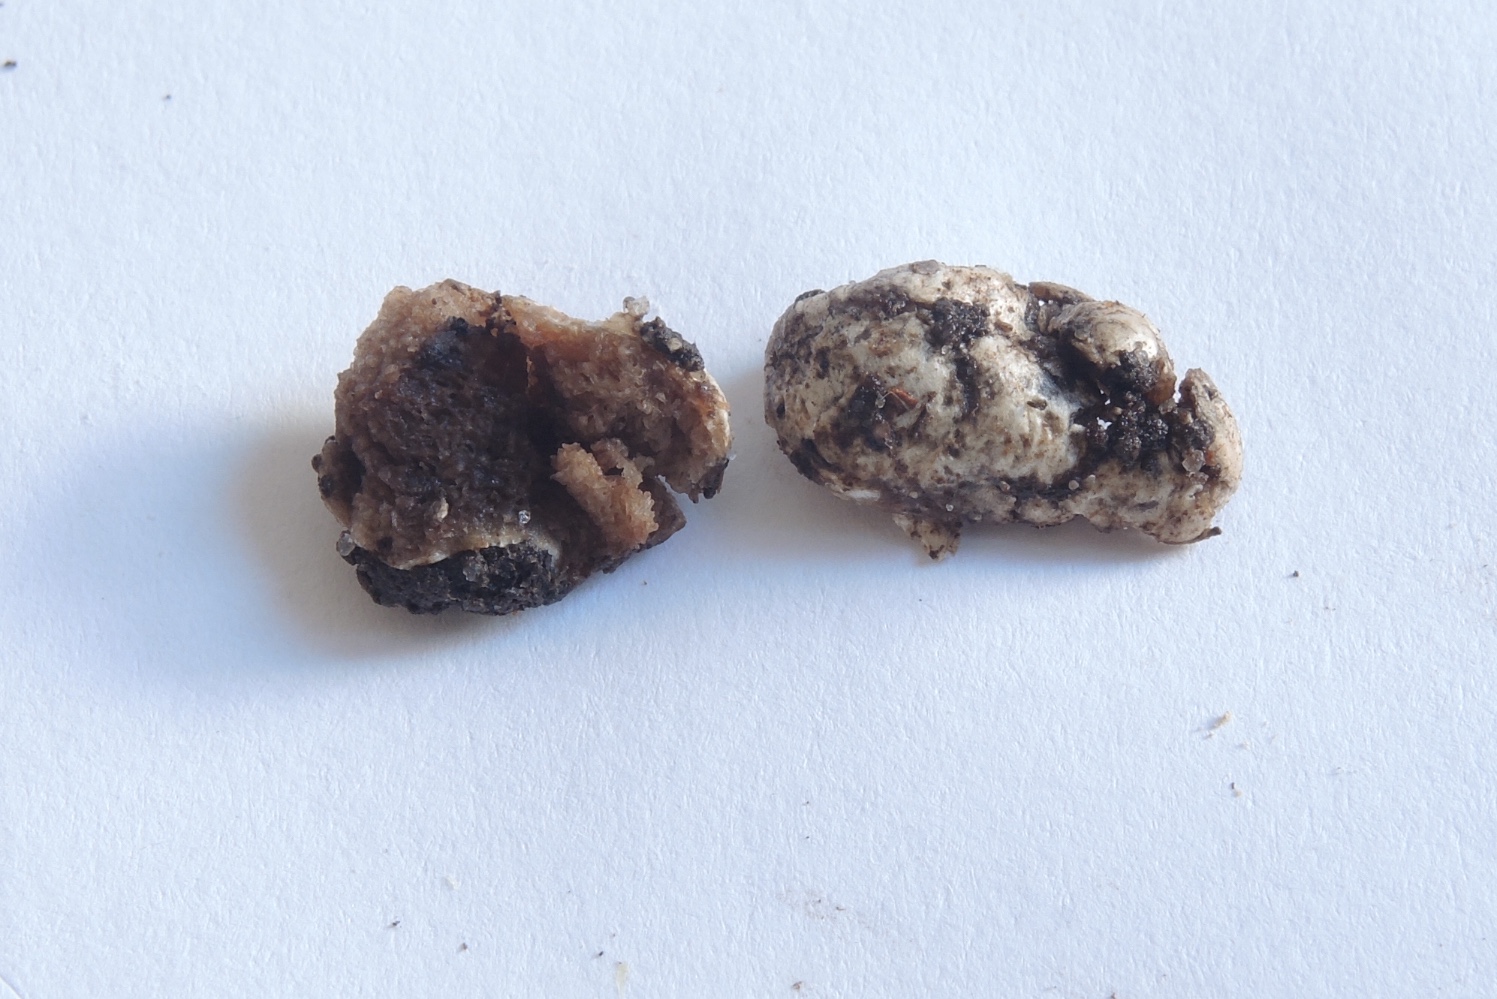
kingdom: Fungi
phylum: Basidiomycota
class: Agaricomycetes
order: Agaricales
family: Hymenogastraceae
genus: Hymenogaster
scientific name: Hymenogaster
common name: knoldtrøffel
